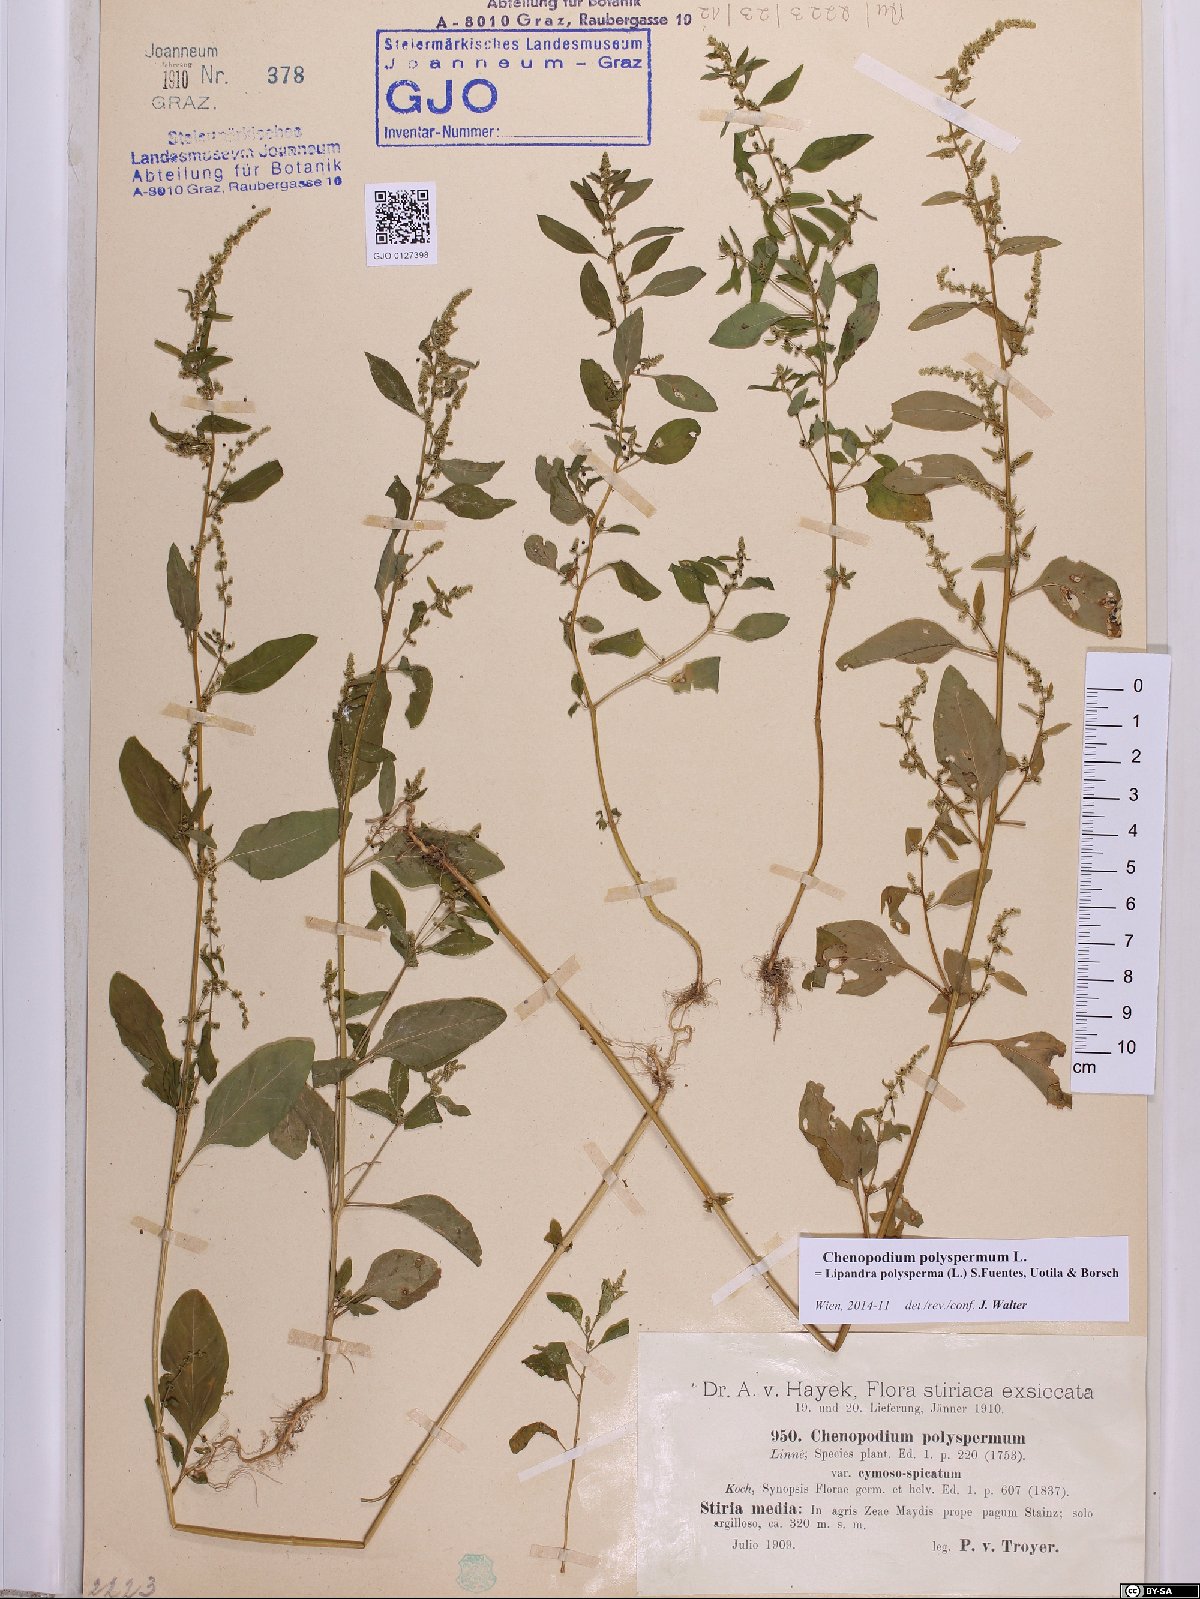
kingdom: Plantae
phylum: Tracheophyta
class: Magnoliopsida
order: Caryophyllales
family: Amaranthaceae
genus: Lipandra
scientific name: Lipandra polysperma
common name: Many-seed goosefoot
